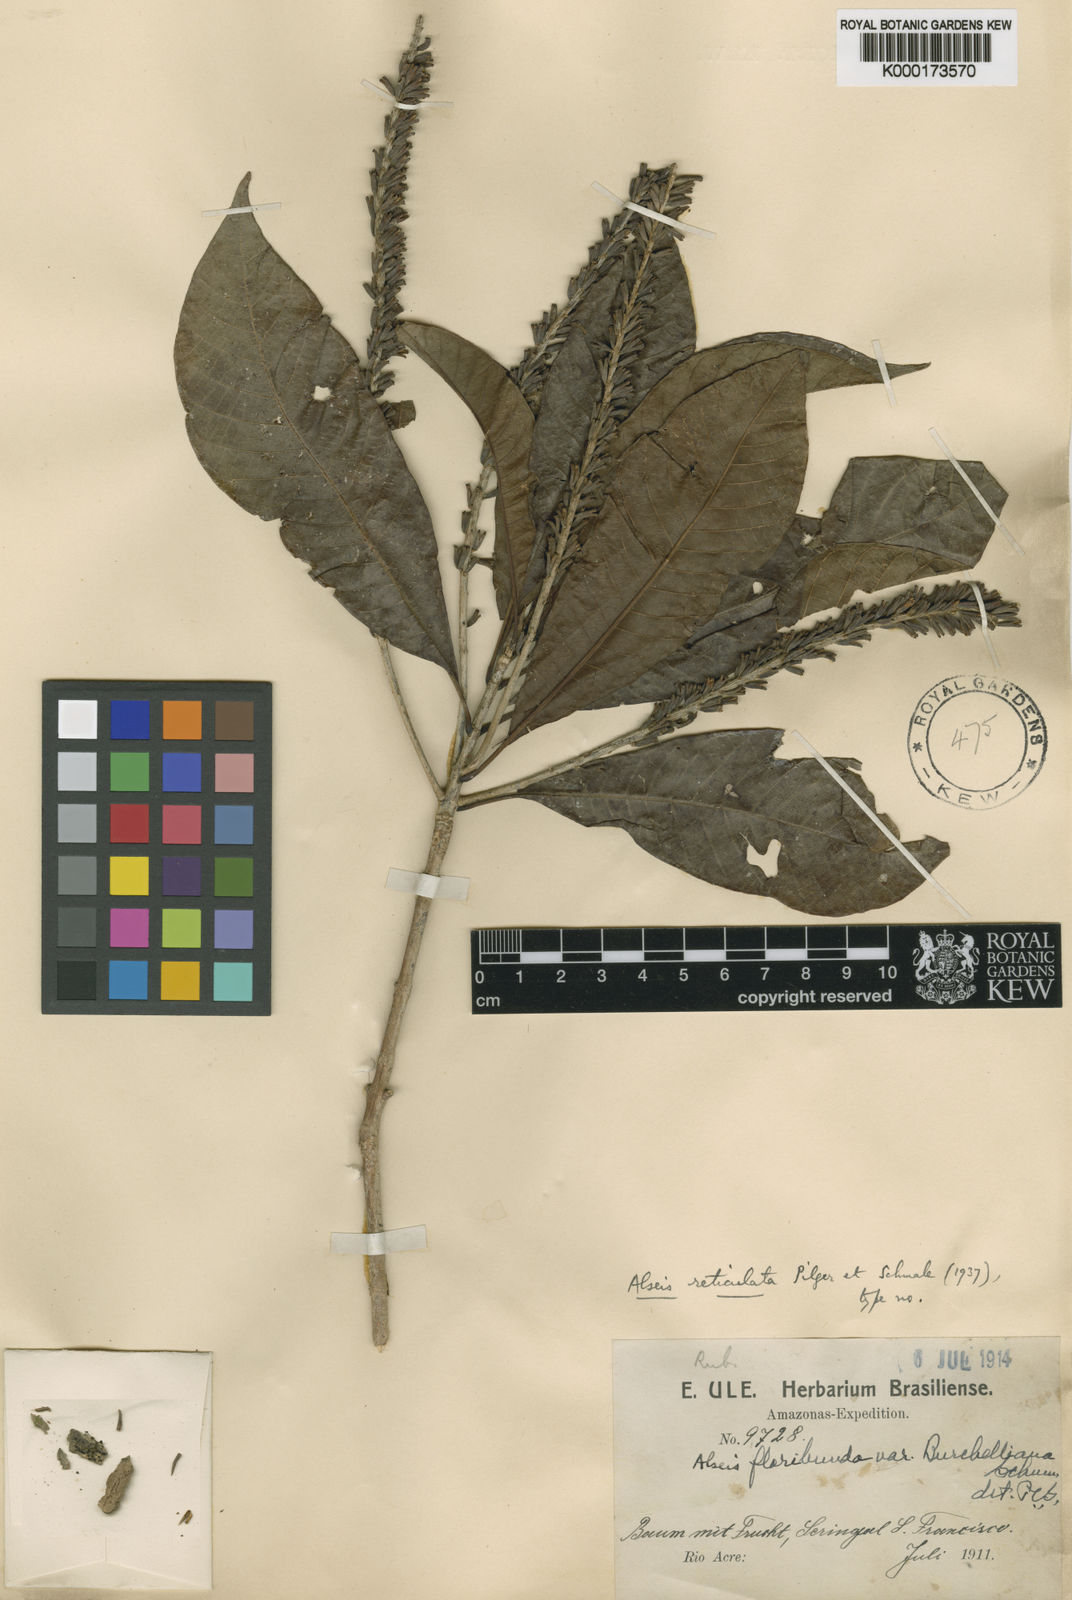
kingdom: Plantae
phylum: Tracheophyta
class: Magnoliopsida
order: Gentianales
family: Rubiaceae
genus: Alseis
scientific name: Alseis reticulata
